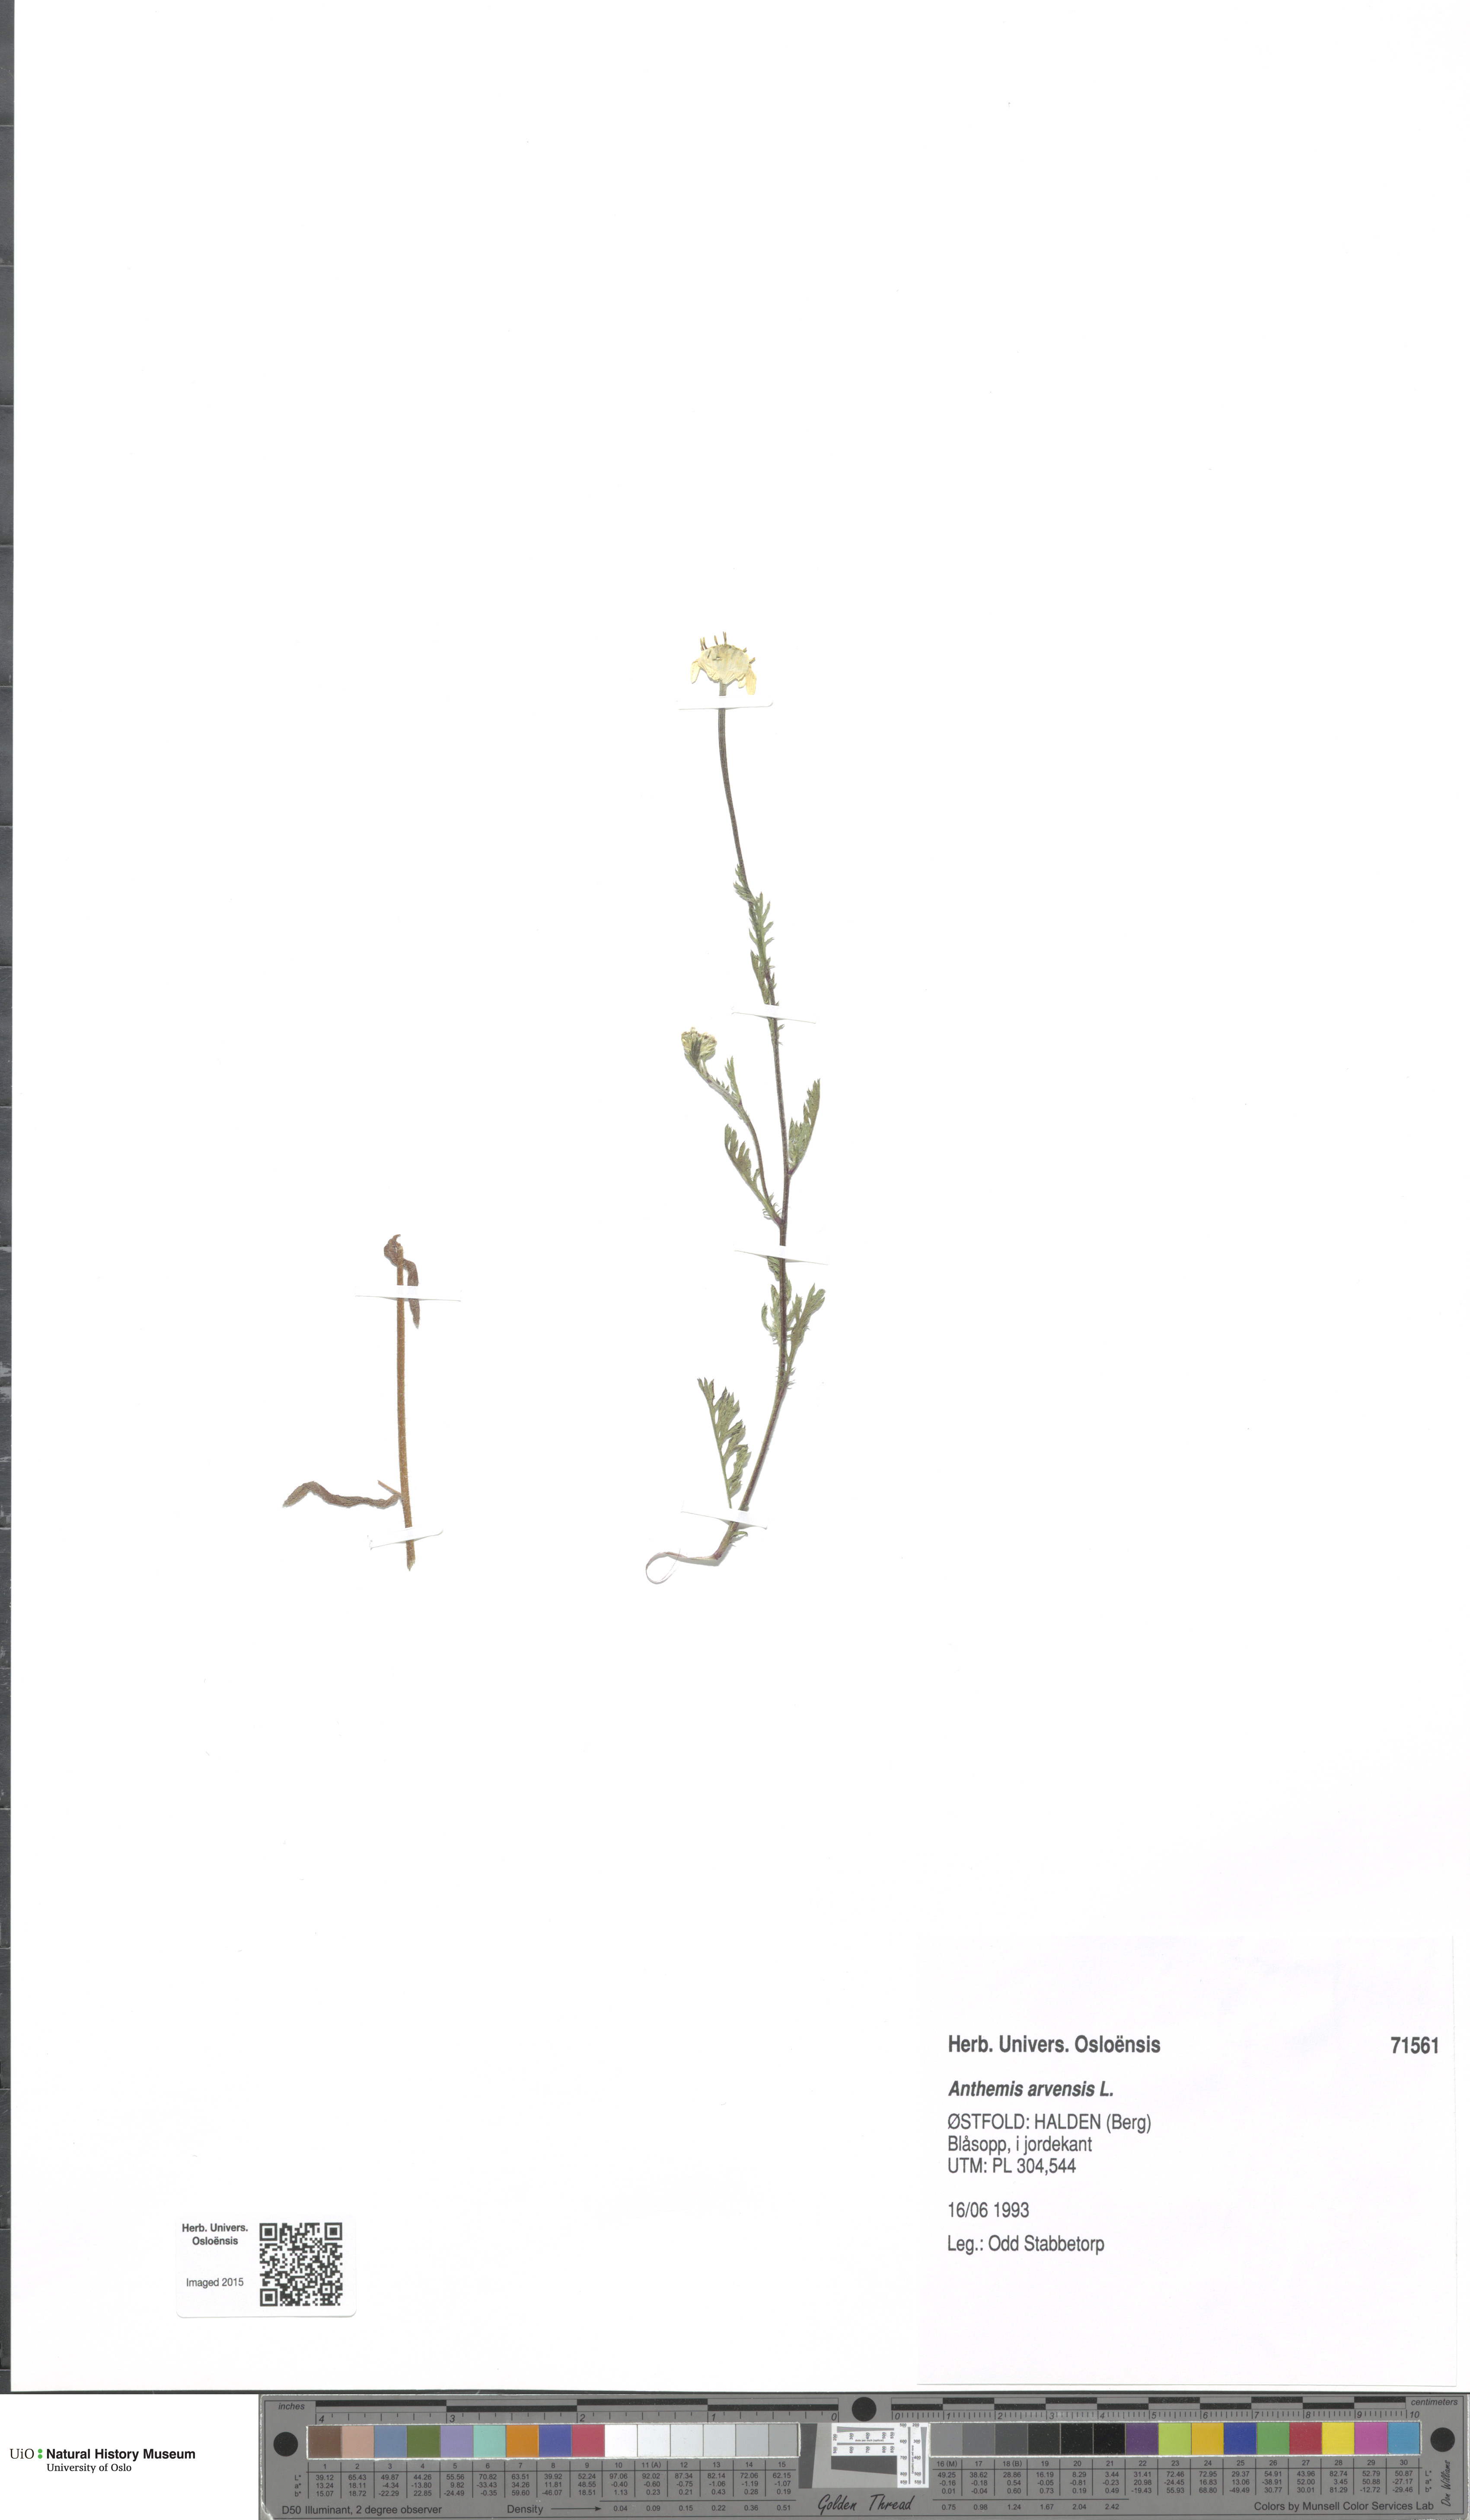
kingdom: Plantae
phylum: Tracheophyta
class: Magnoliopsida
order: Asterales
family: Asteraceae
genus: Anthemis
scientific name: Anthemis arvensis
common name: Corn chamomile
